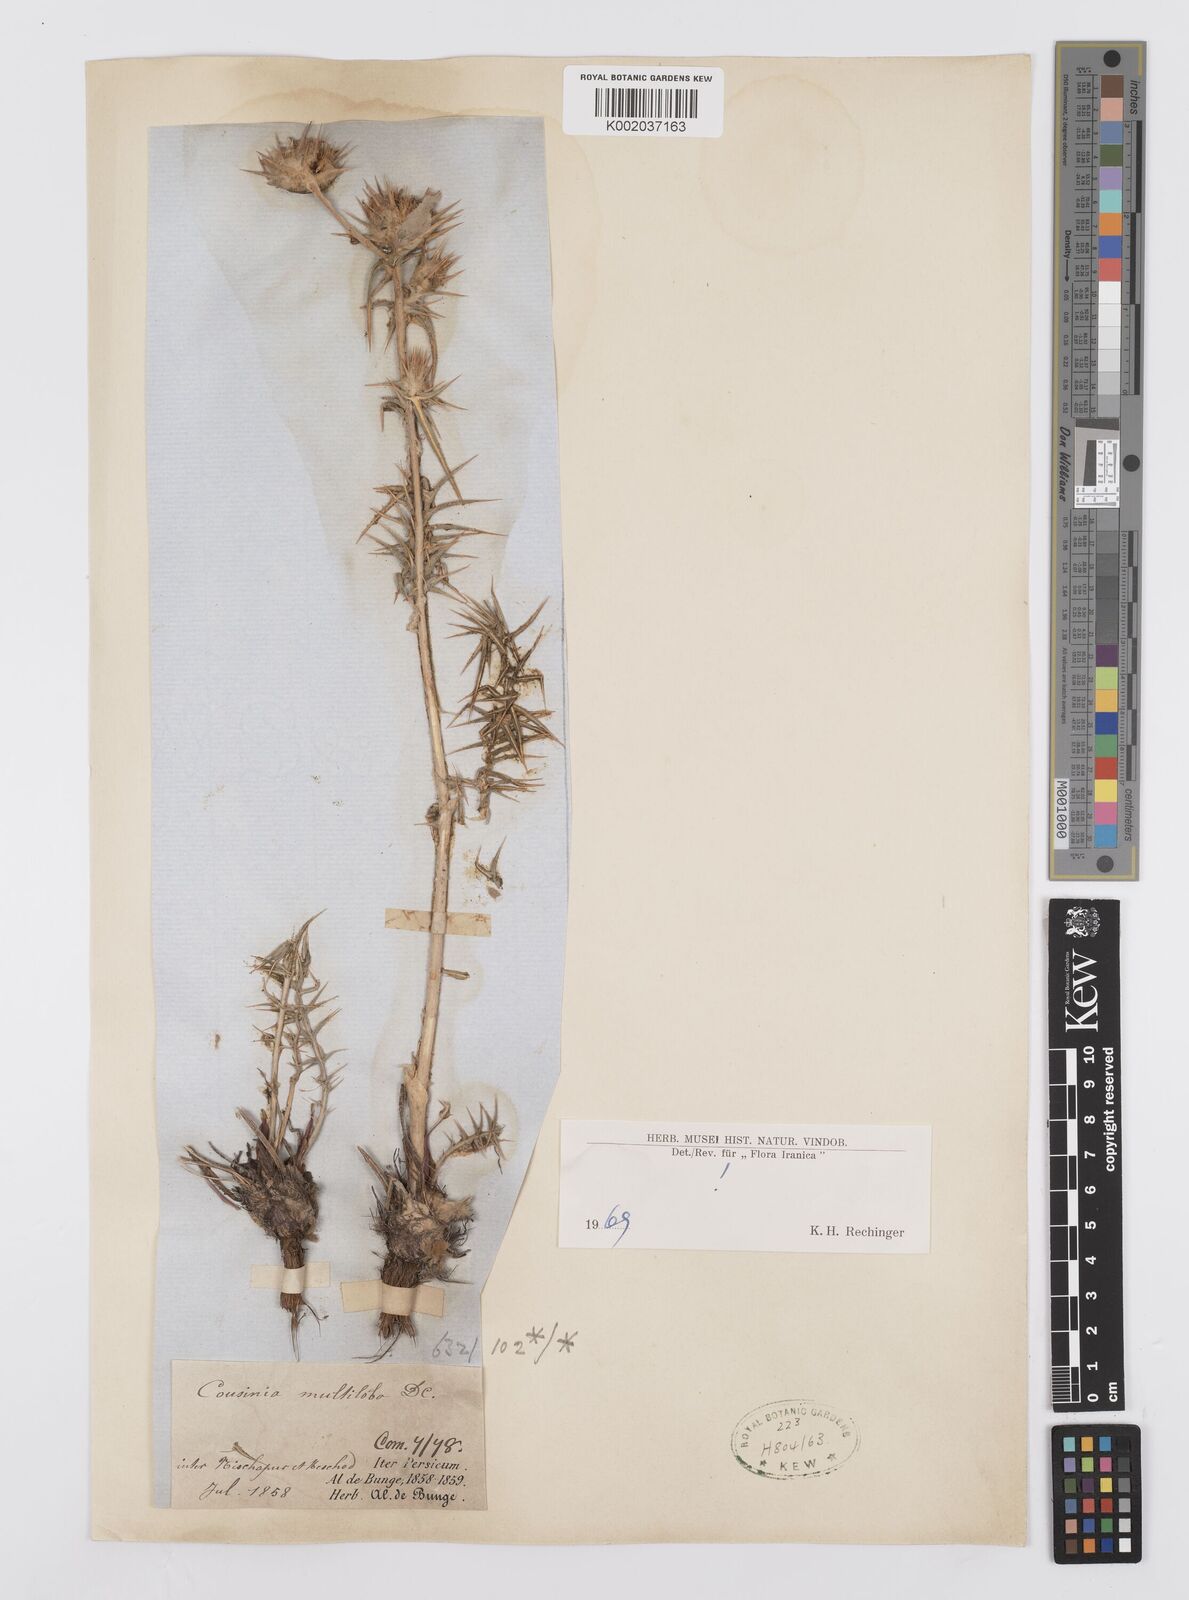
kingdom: Plantae
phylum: Tracheophyta
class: Magnoliopsida
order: Asterales
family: Asteraceae
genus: Cousinia
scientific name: Cousinia multiloba
